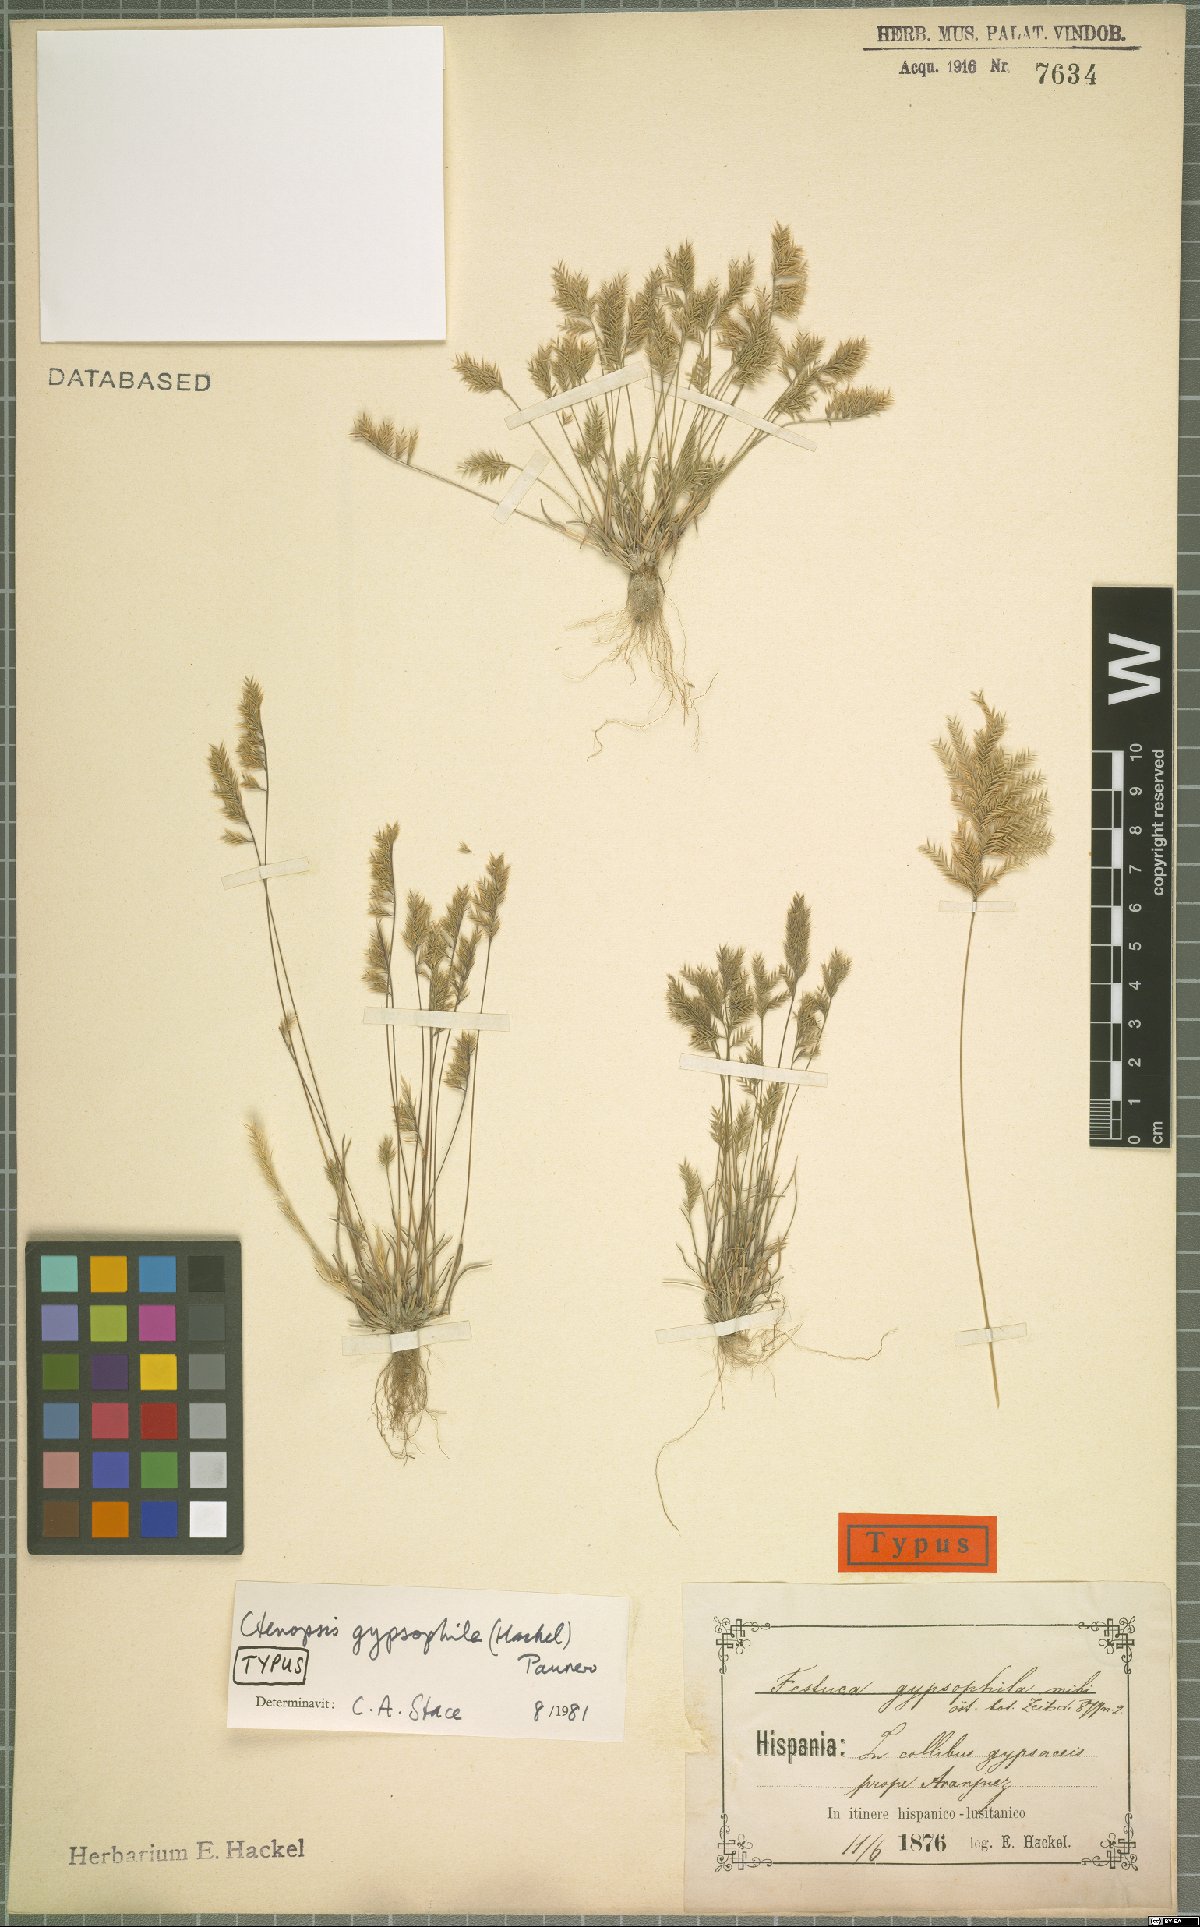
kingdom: Plantae
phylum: Tracheophyta
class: Liliopsida
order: Poales
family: Poaceae
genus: Festuca
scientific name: Festuca gypsophila
